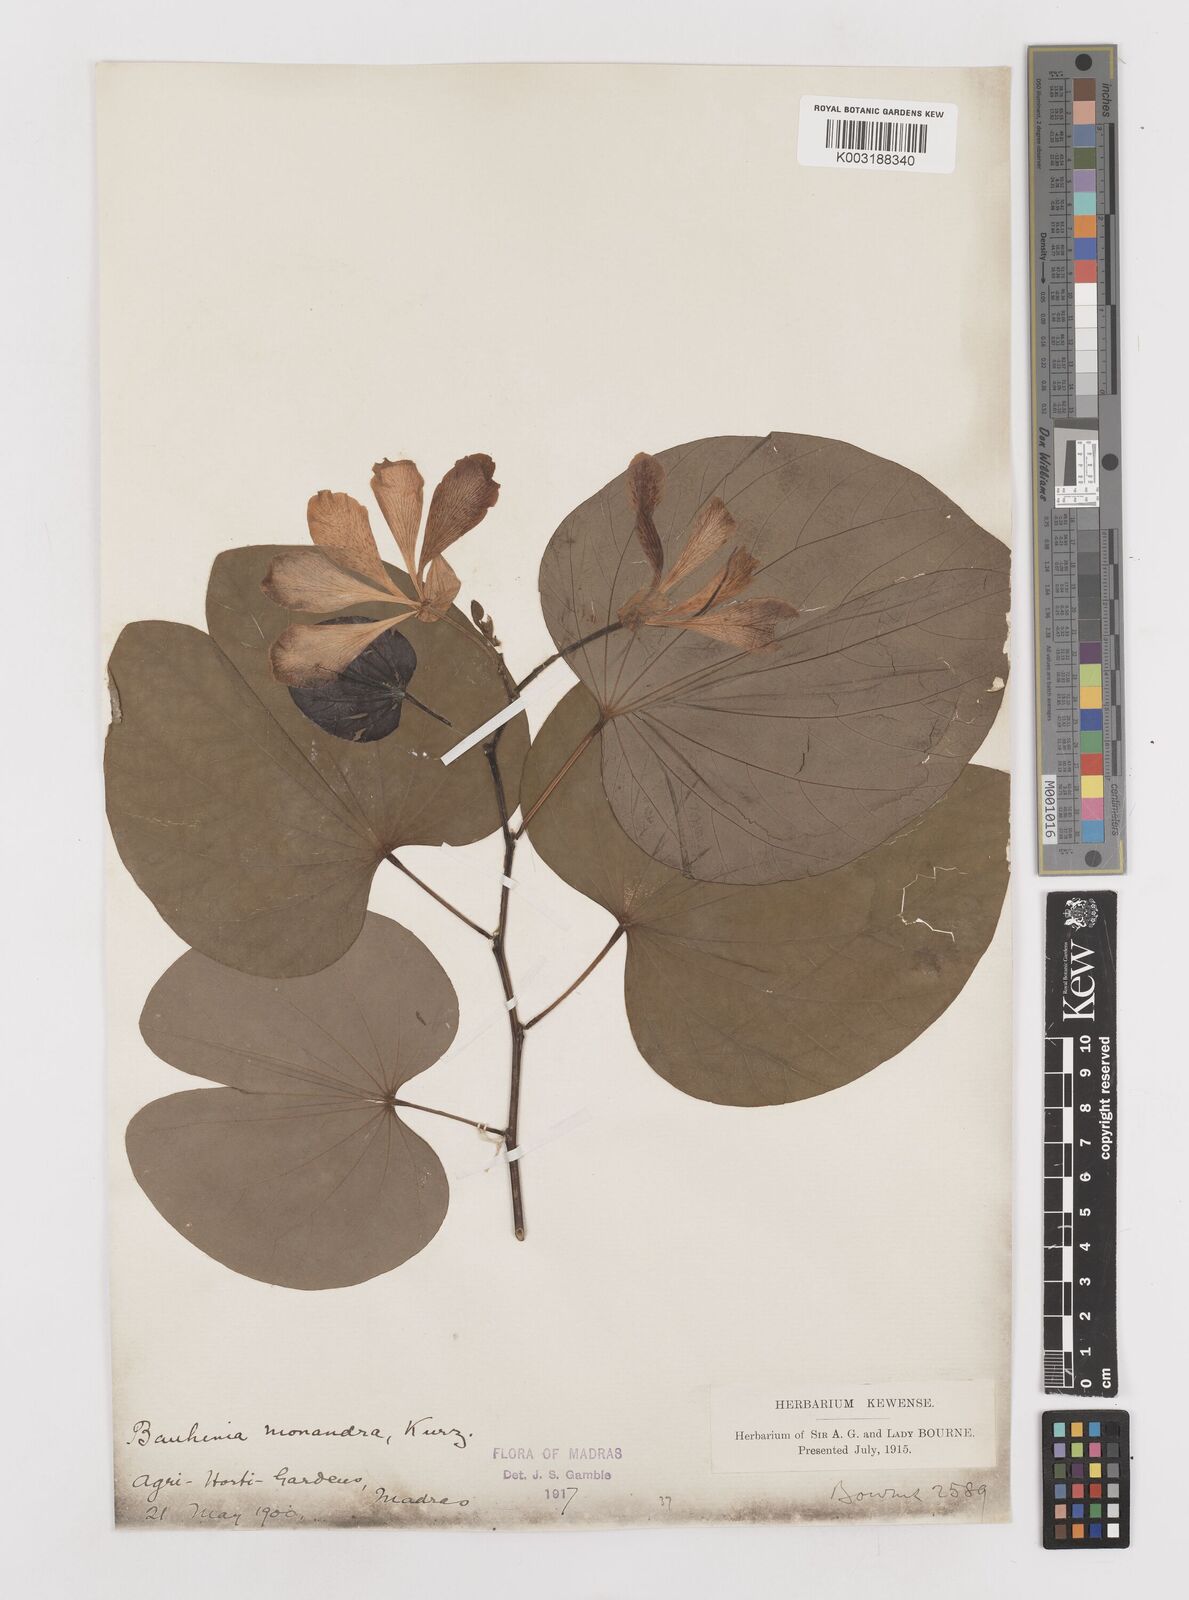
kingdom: Plantae
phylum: Tracheophyta
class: Magnoliopsida
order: Fabales
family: Fabaceae
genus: Bauhinia
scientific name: Bauhinia monandra
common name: Napoleon's plume
